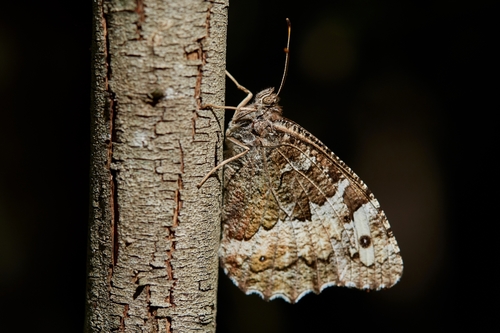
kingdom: Animalia
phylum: Arthropoda
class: Insecta
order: Lepidoptera
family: Lycaenidae
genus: Loweia
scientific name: Loweia tityrus
